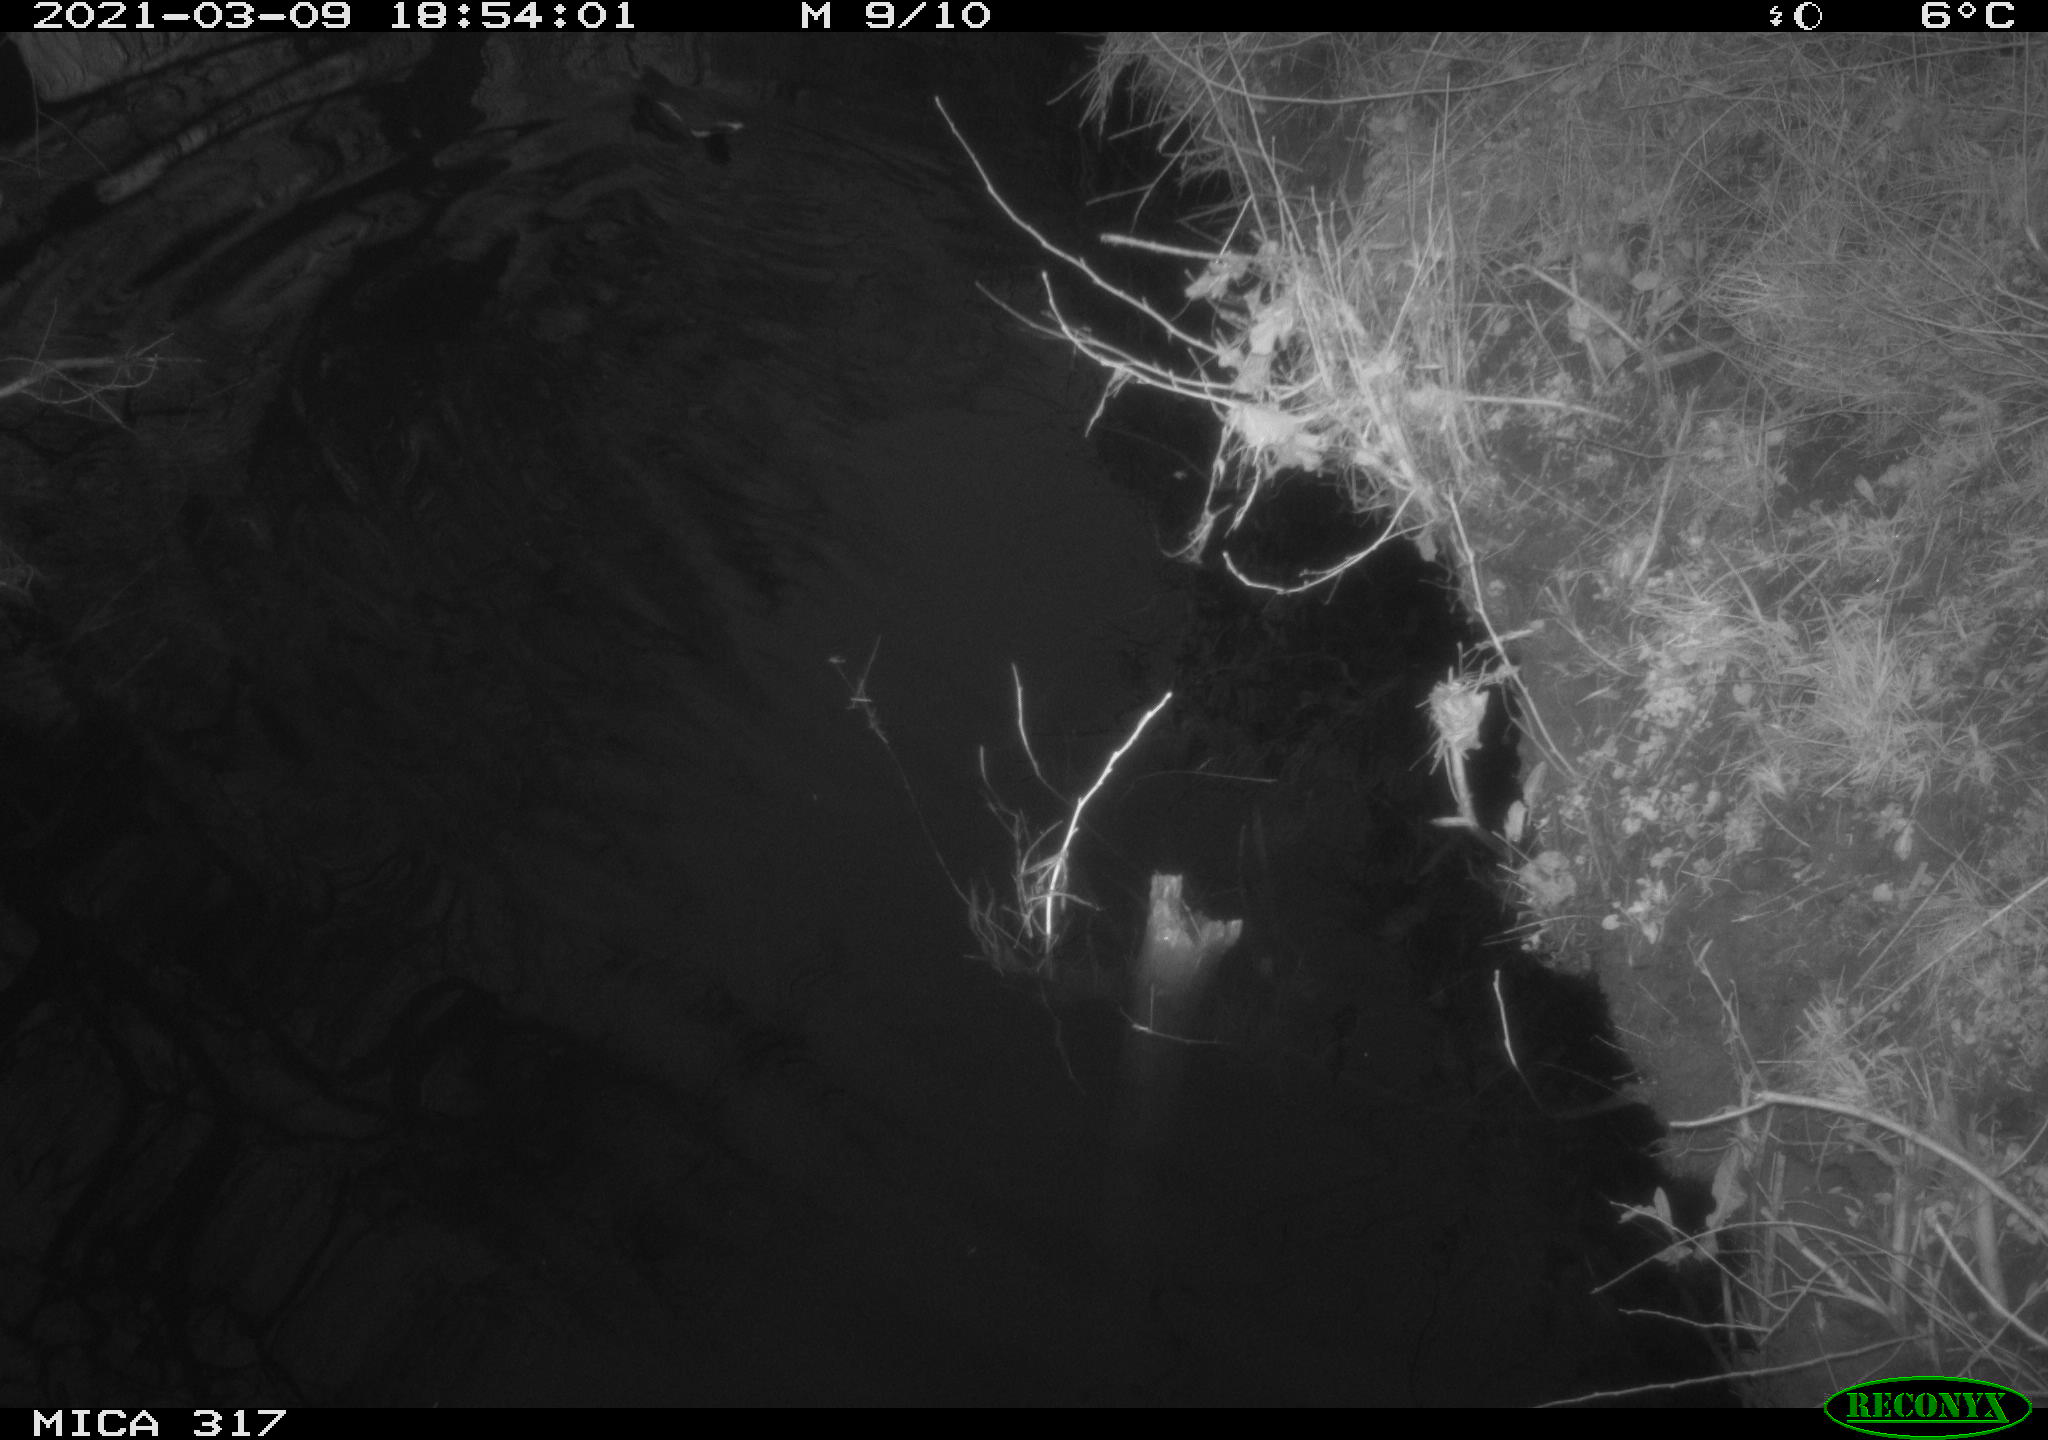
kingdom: Animalia
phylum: Chordata
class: Aves
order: Gruiformes
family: Rallidae
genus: Gallinula
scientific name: Gallinula chloropus
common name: Common moorhen
